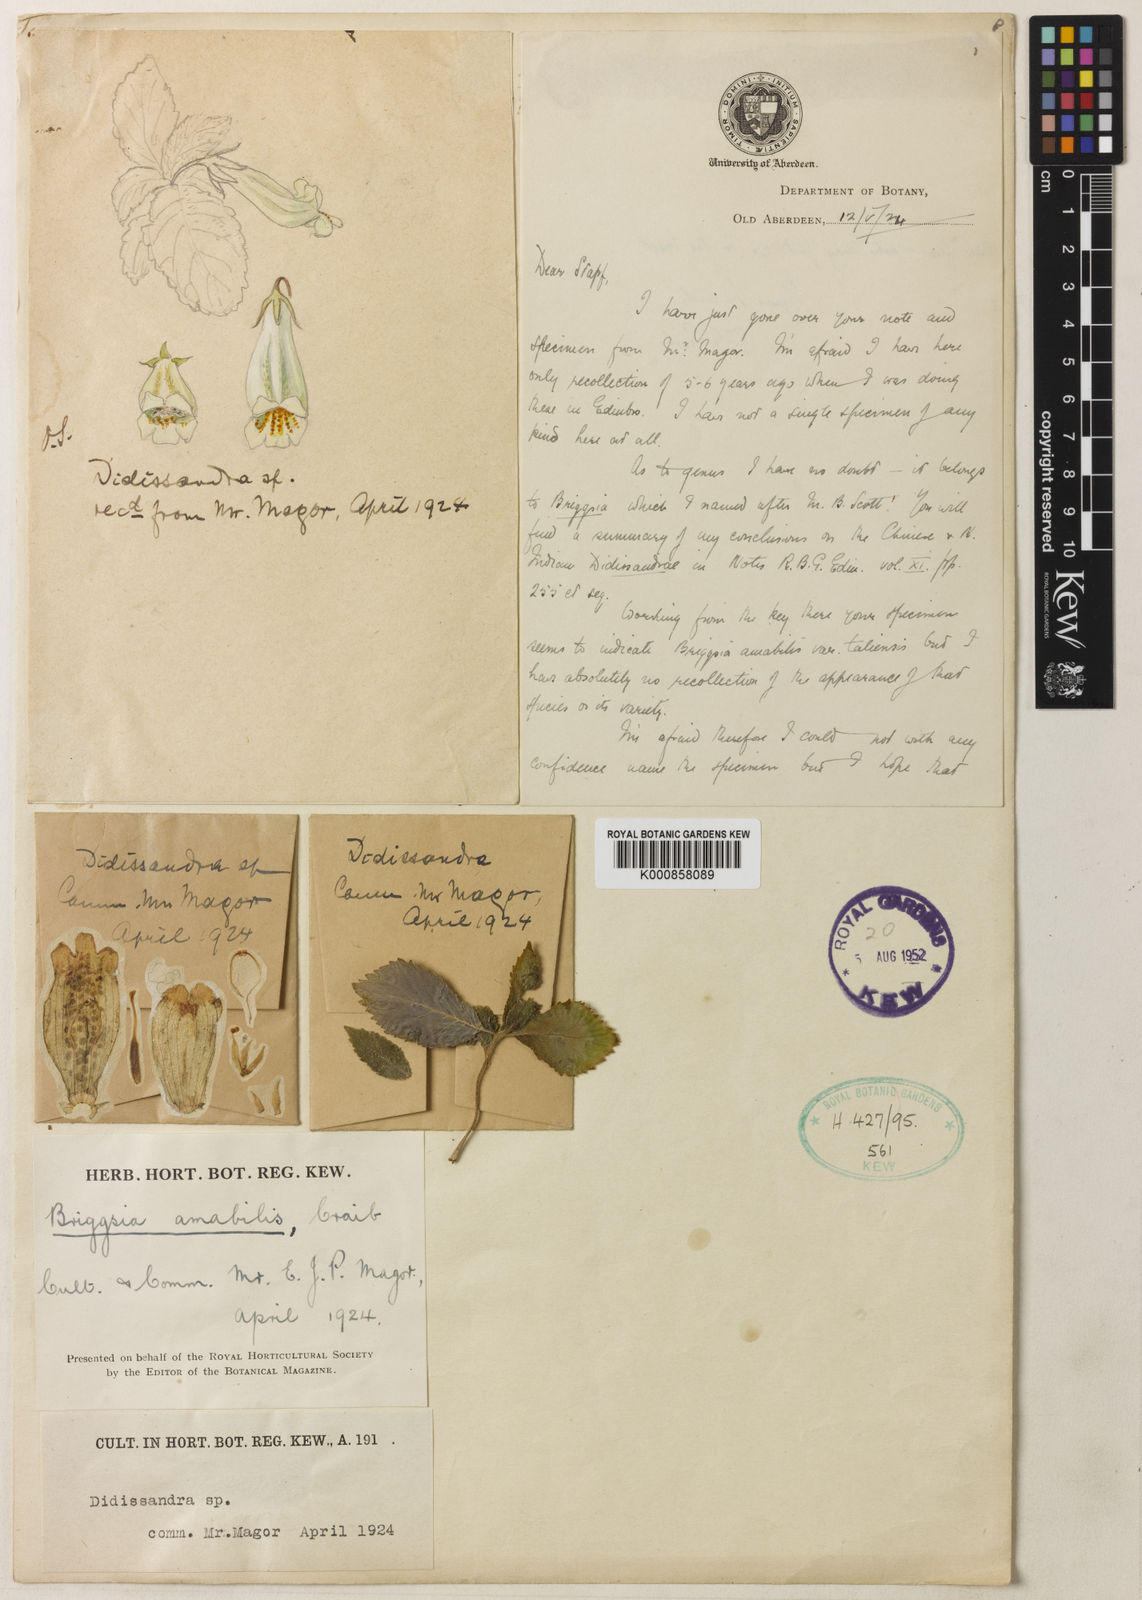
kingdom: Plantae
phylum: Tracheophyta
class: Magnoliopsida
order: Lamiales
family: Gesneriaceae
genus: Loxostigma
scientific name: Loxostigma kurzii
